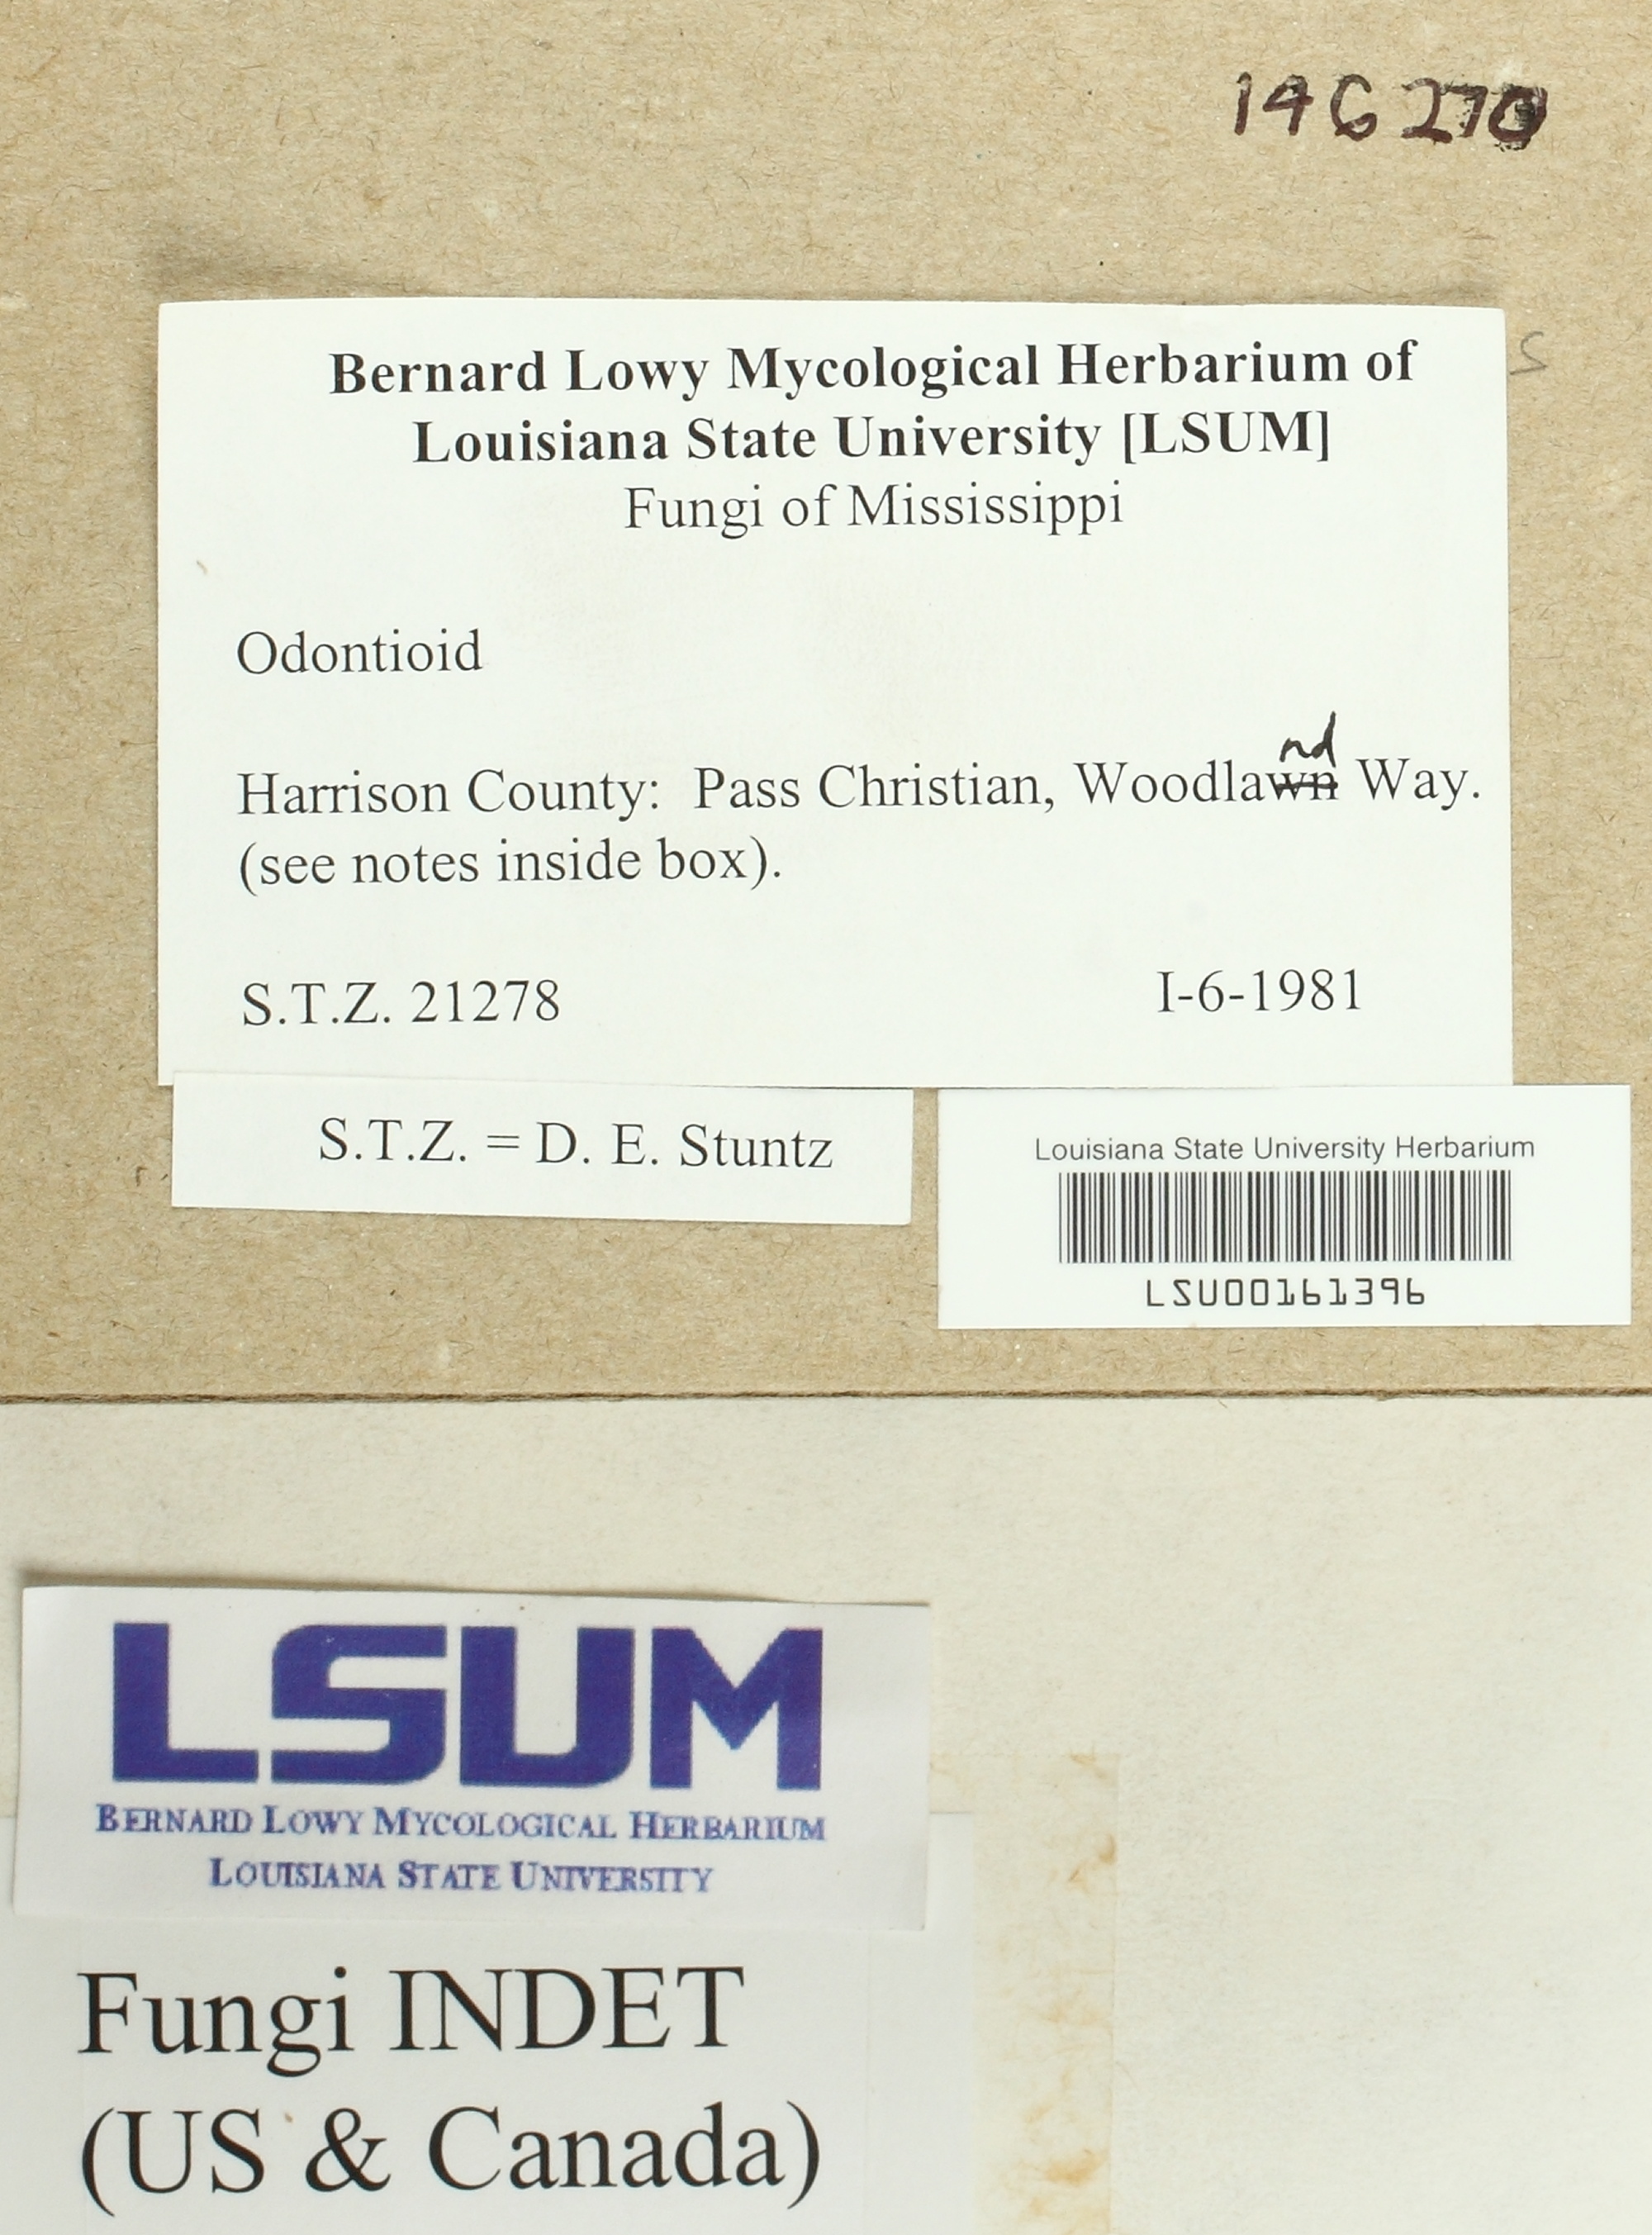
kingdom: Fungi
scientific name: Fungi
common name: Fungi
